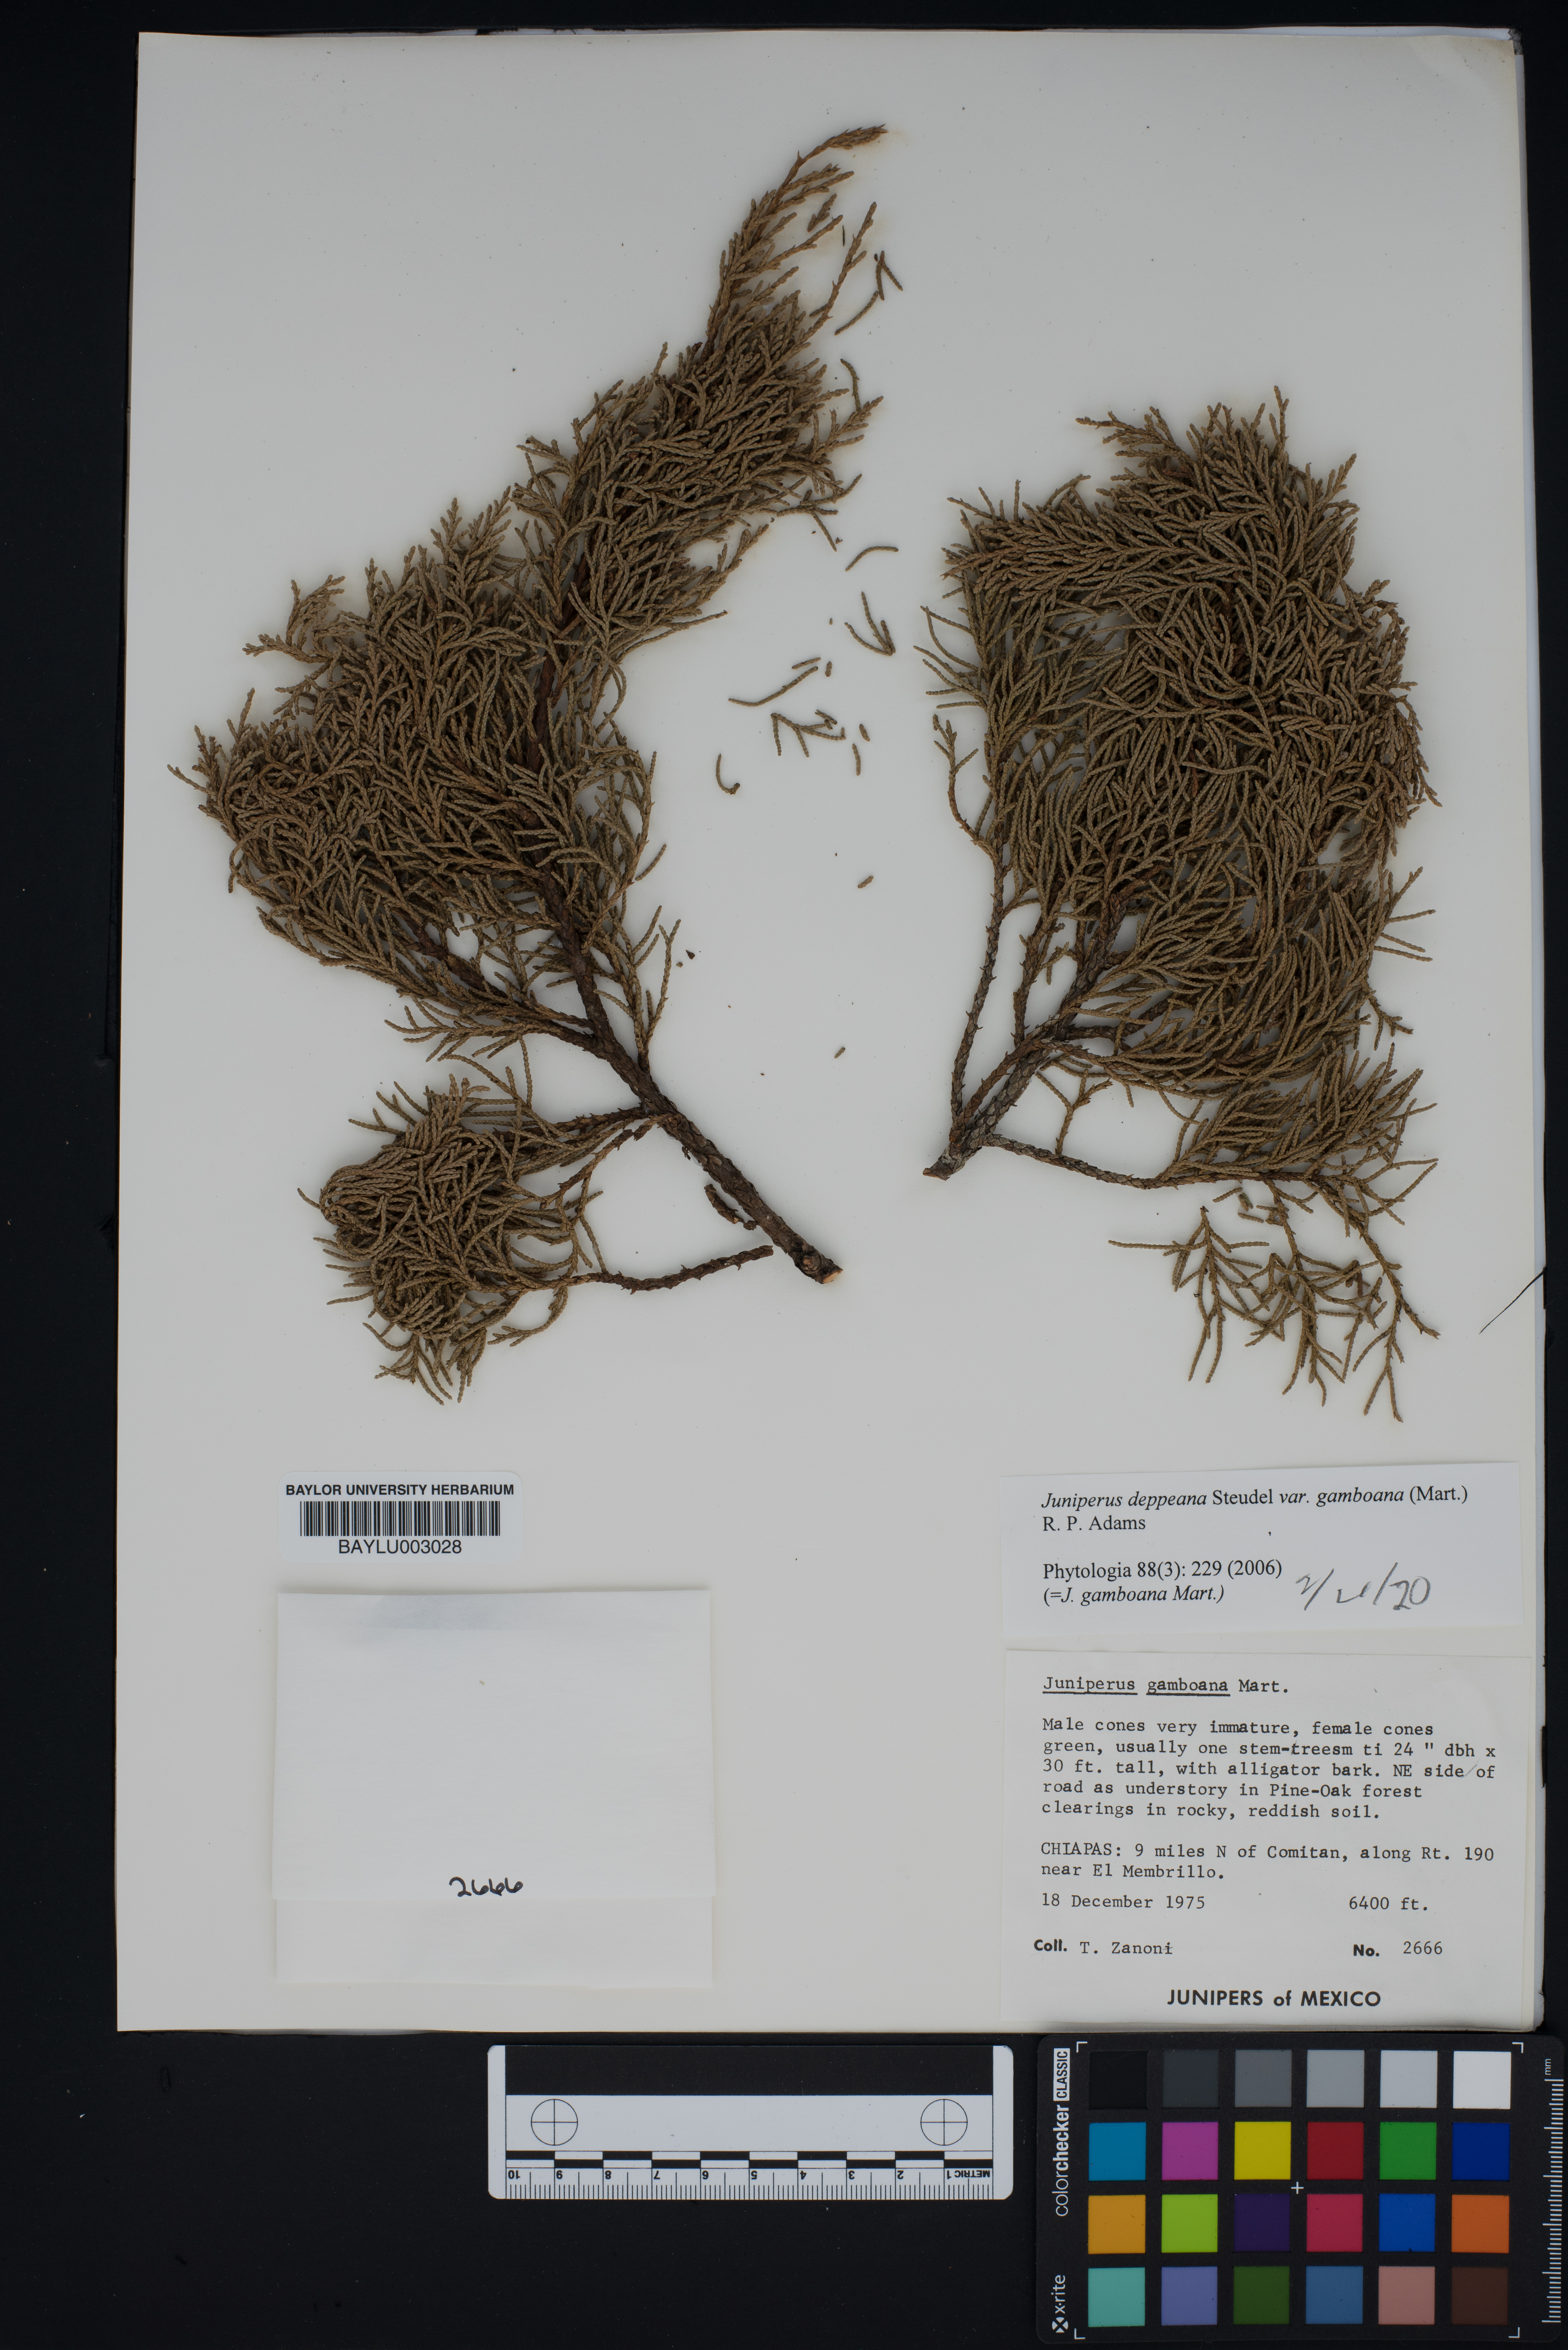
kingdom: Plantae
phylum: Tracheophyta
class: Pinopsida
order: Pinales
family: Cupressaceae
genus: Juniperus
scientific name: Juniperus gamboana
